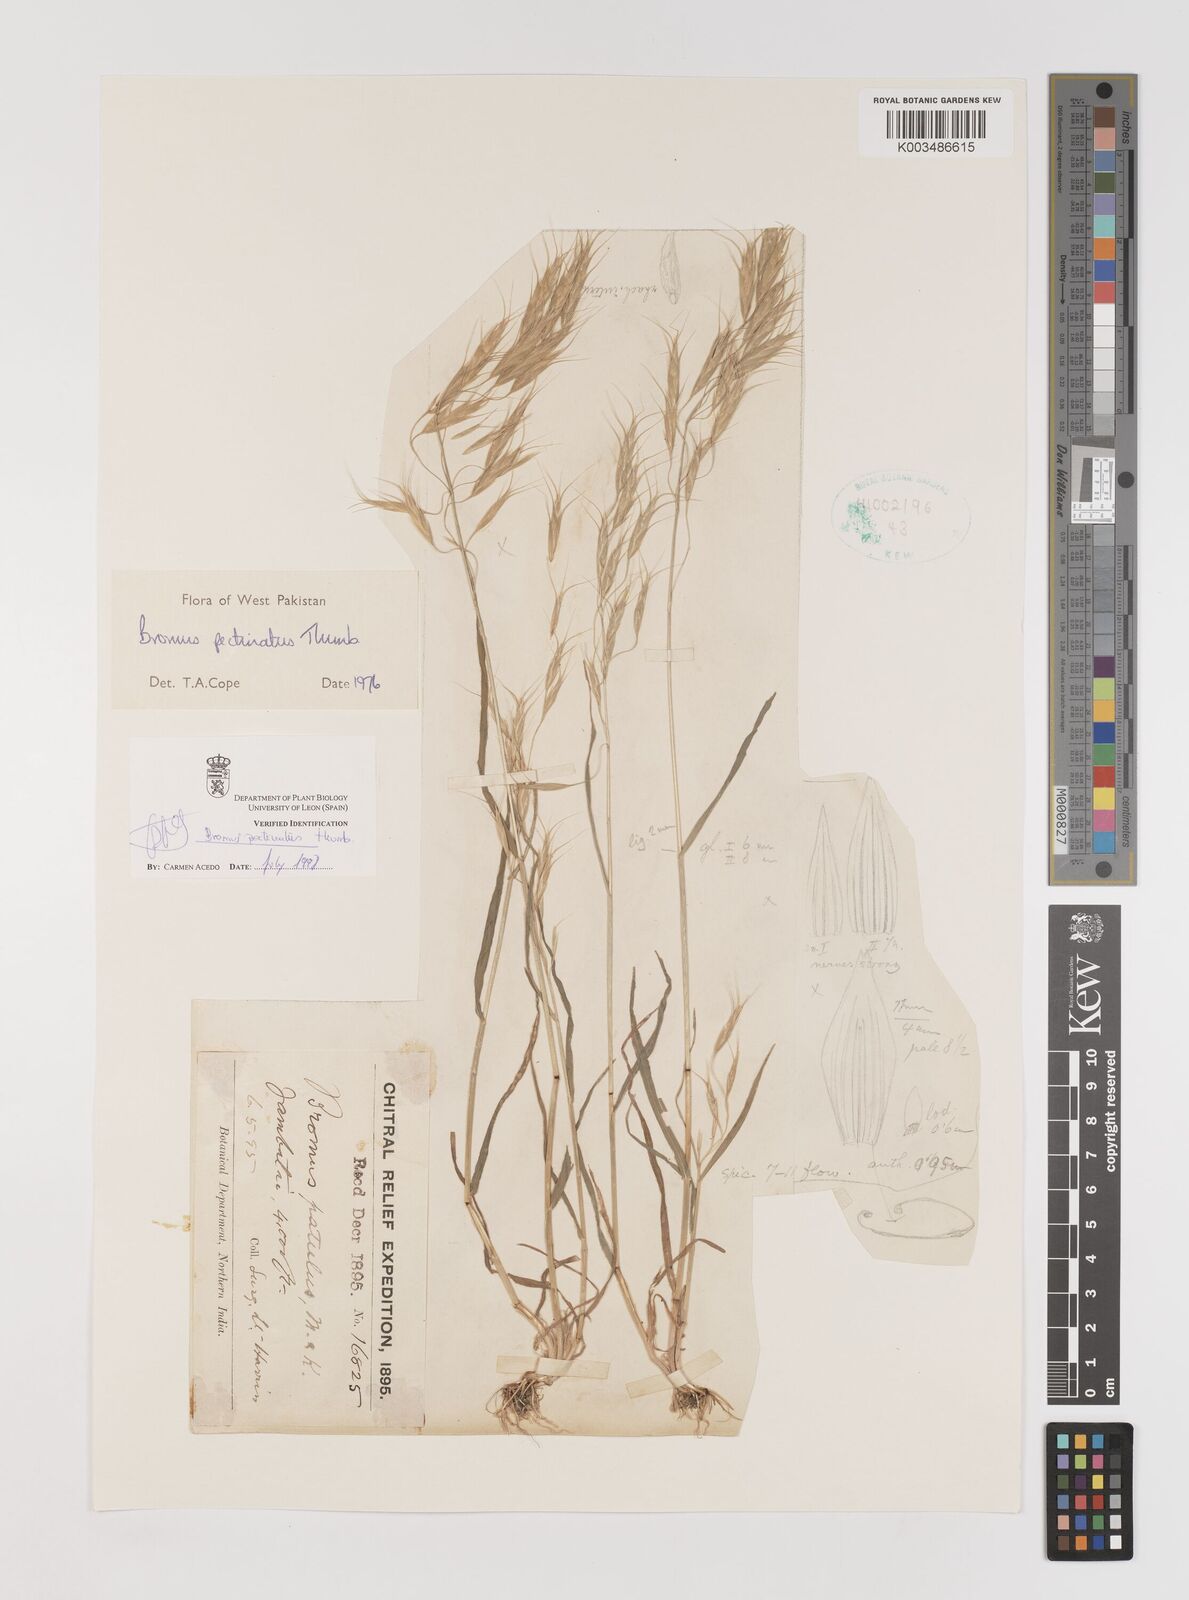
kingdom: Plantae
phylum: Tracheophyta
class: Liliopsida
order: Poales
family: Poaceae
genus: Bromus
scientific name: Bromus pectinatus
